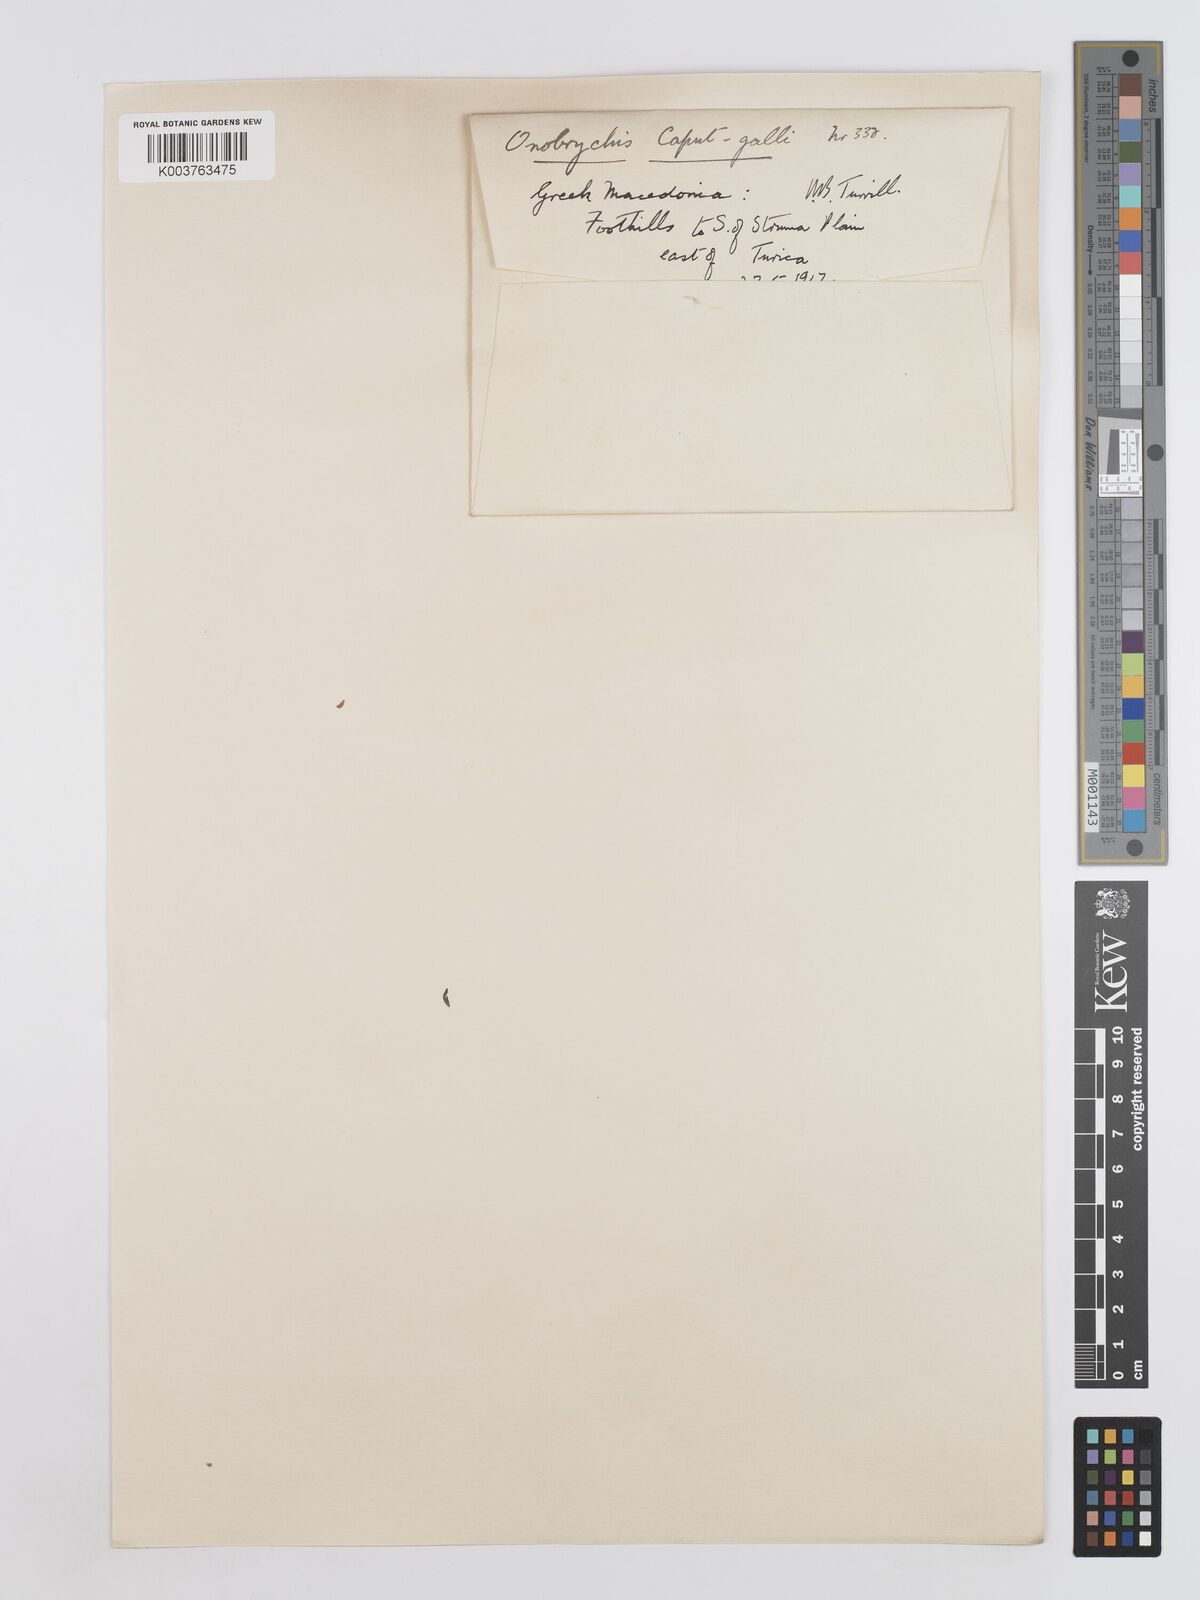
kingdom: Plantae
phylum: Tracheophyta
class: Magnoliopsida
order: Fabales
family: Fabaceae
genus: Onobrychis
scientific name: Onobrychis caput-galli
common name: Cockscomb sainfoin
